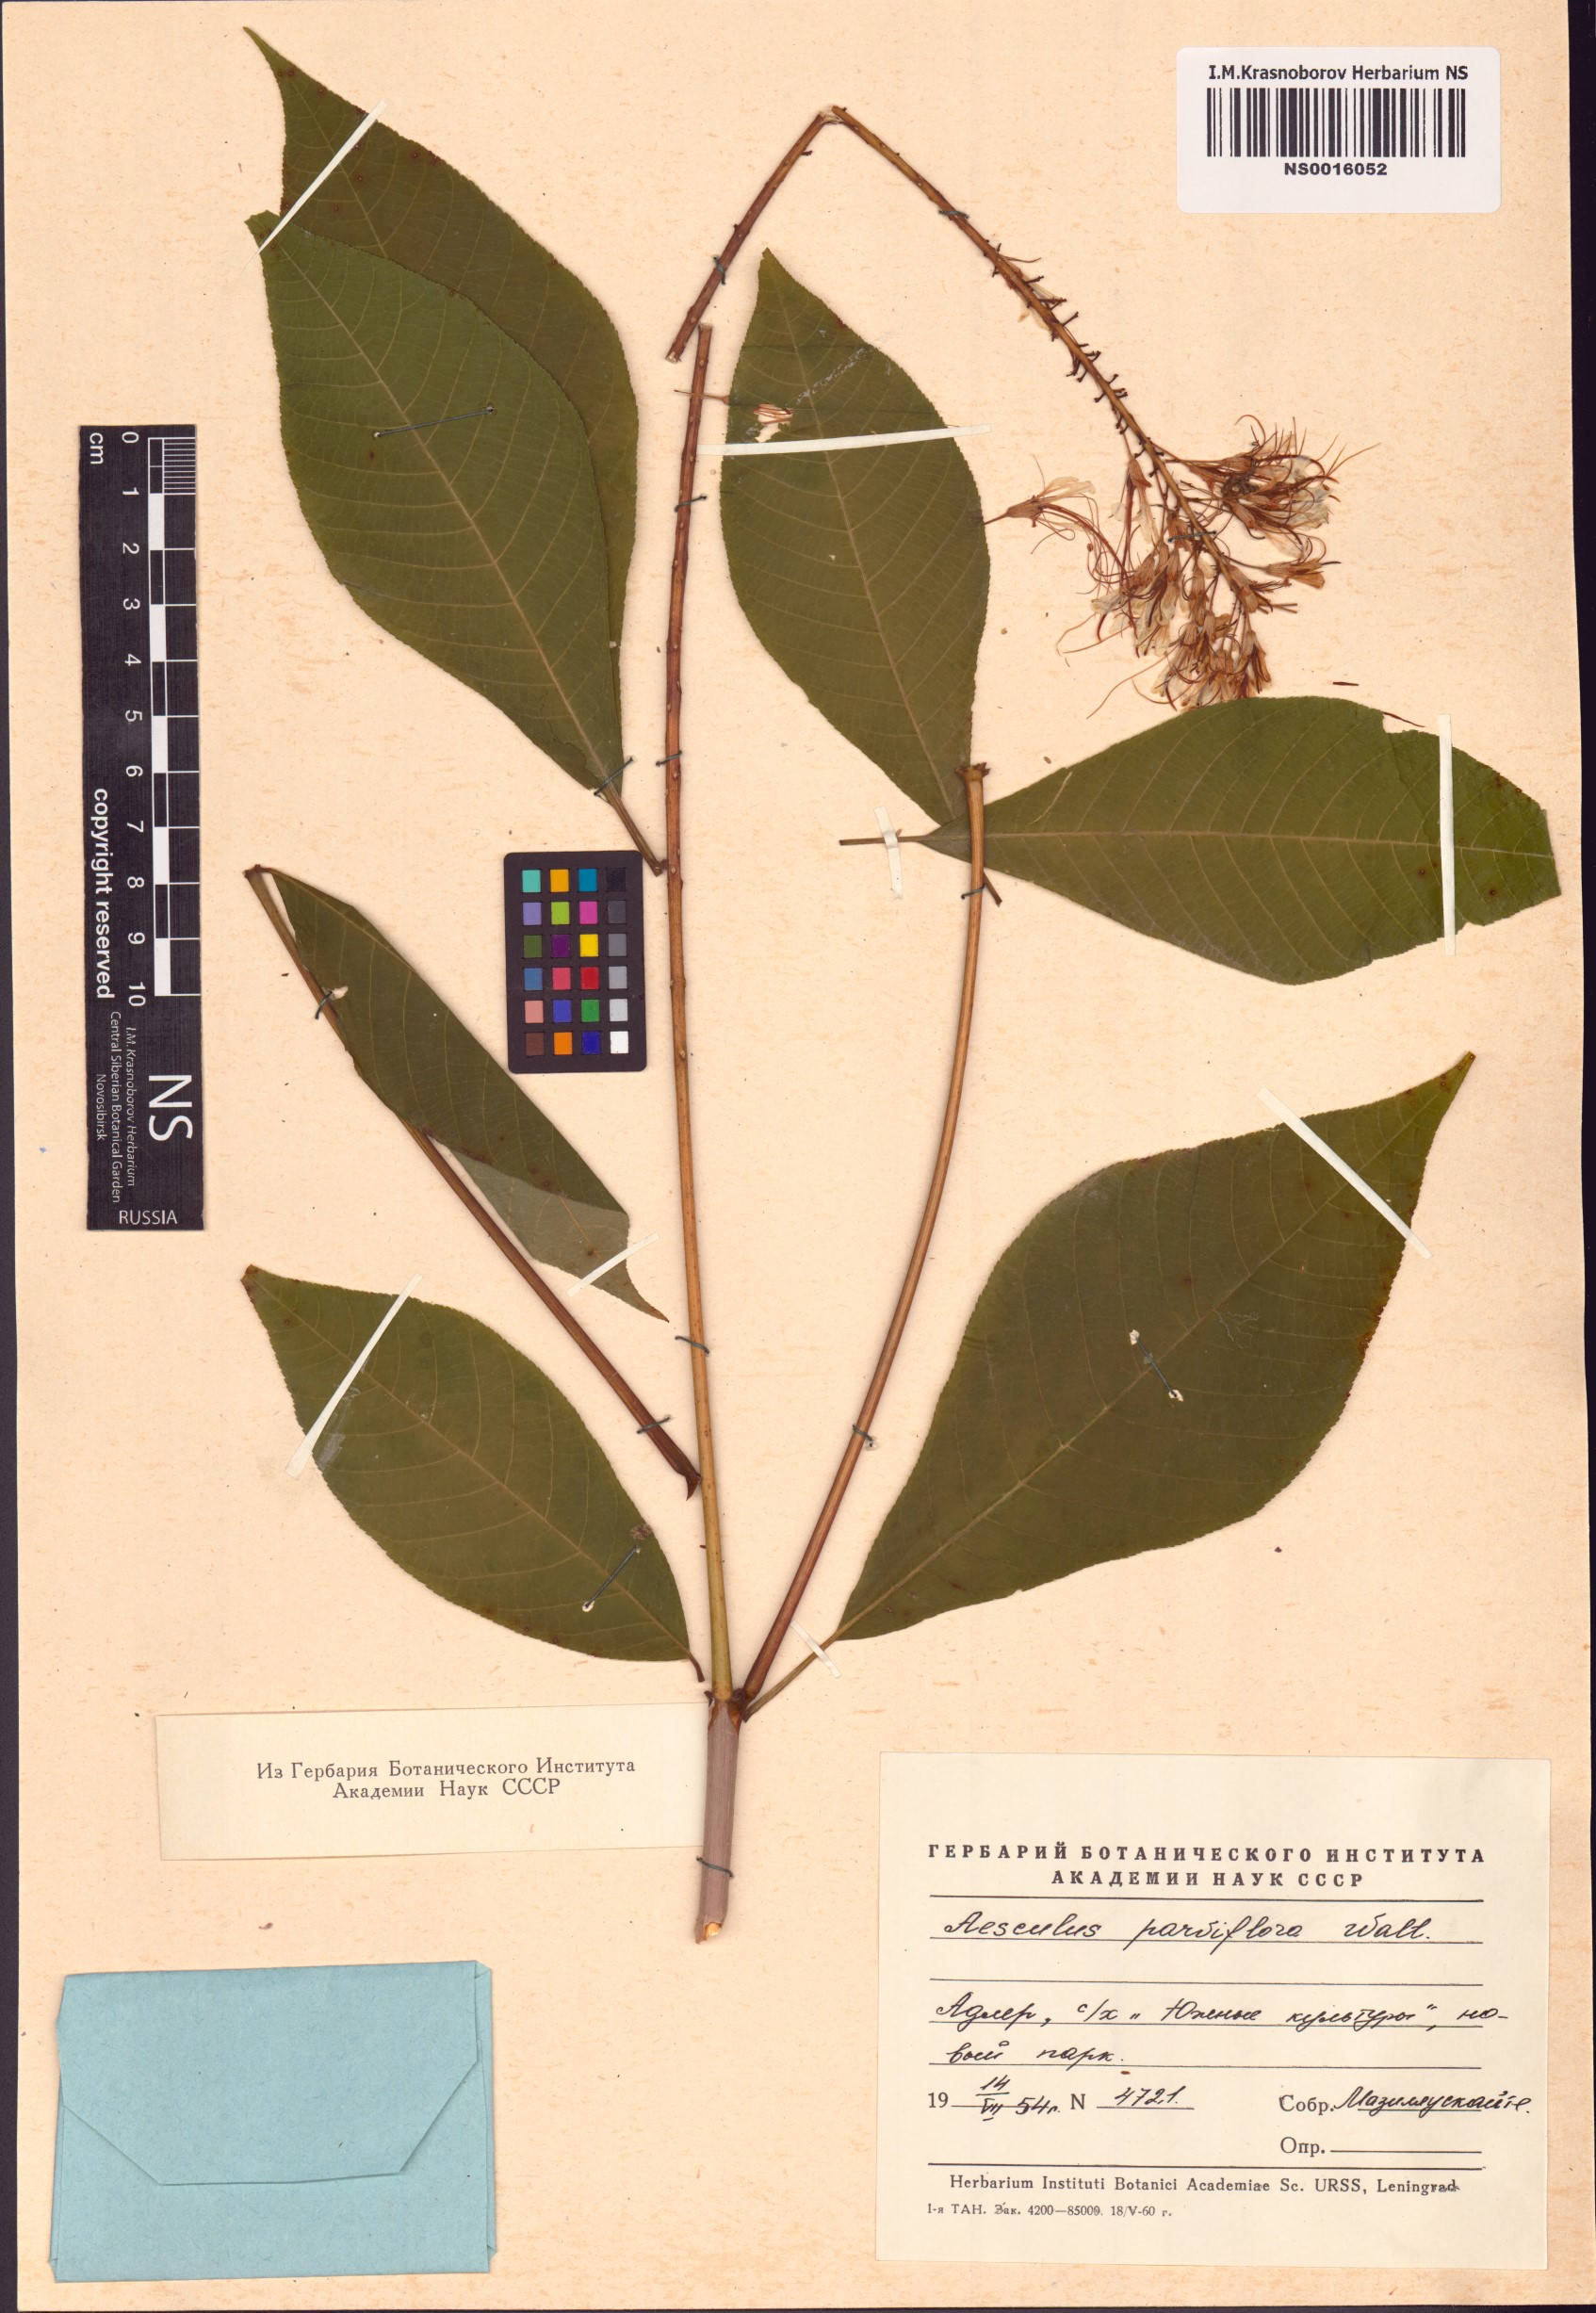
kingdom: Plantae
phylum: Tracheophyta
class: Magnoliopsida
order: Sapindales
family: Sapindaceae
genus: Aesculus
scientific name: Aesculus parviflora
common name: Bottlebrush buckeye
